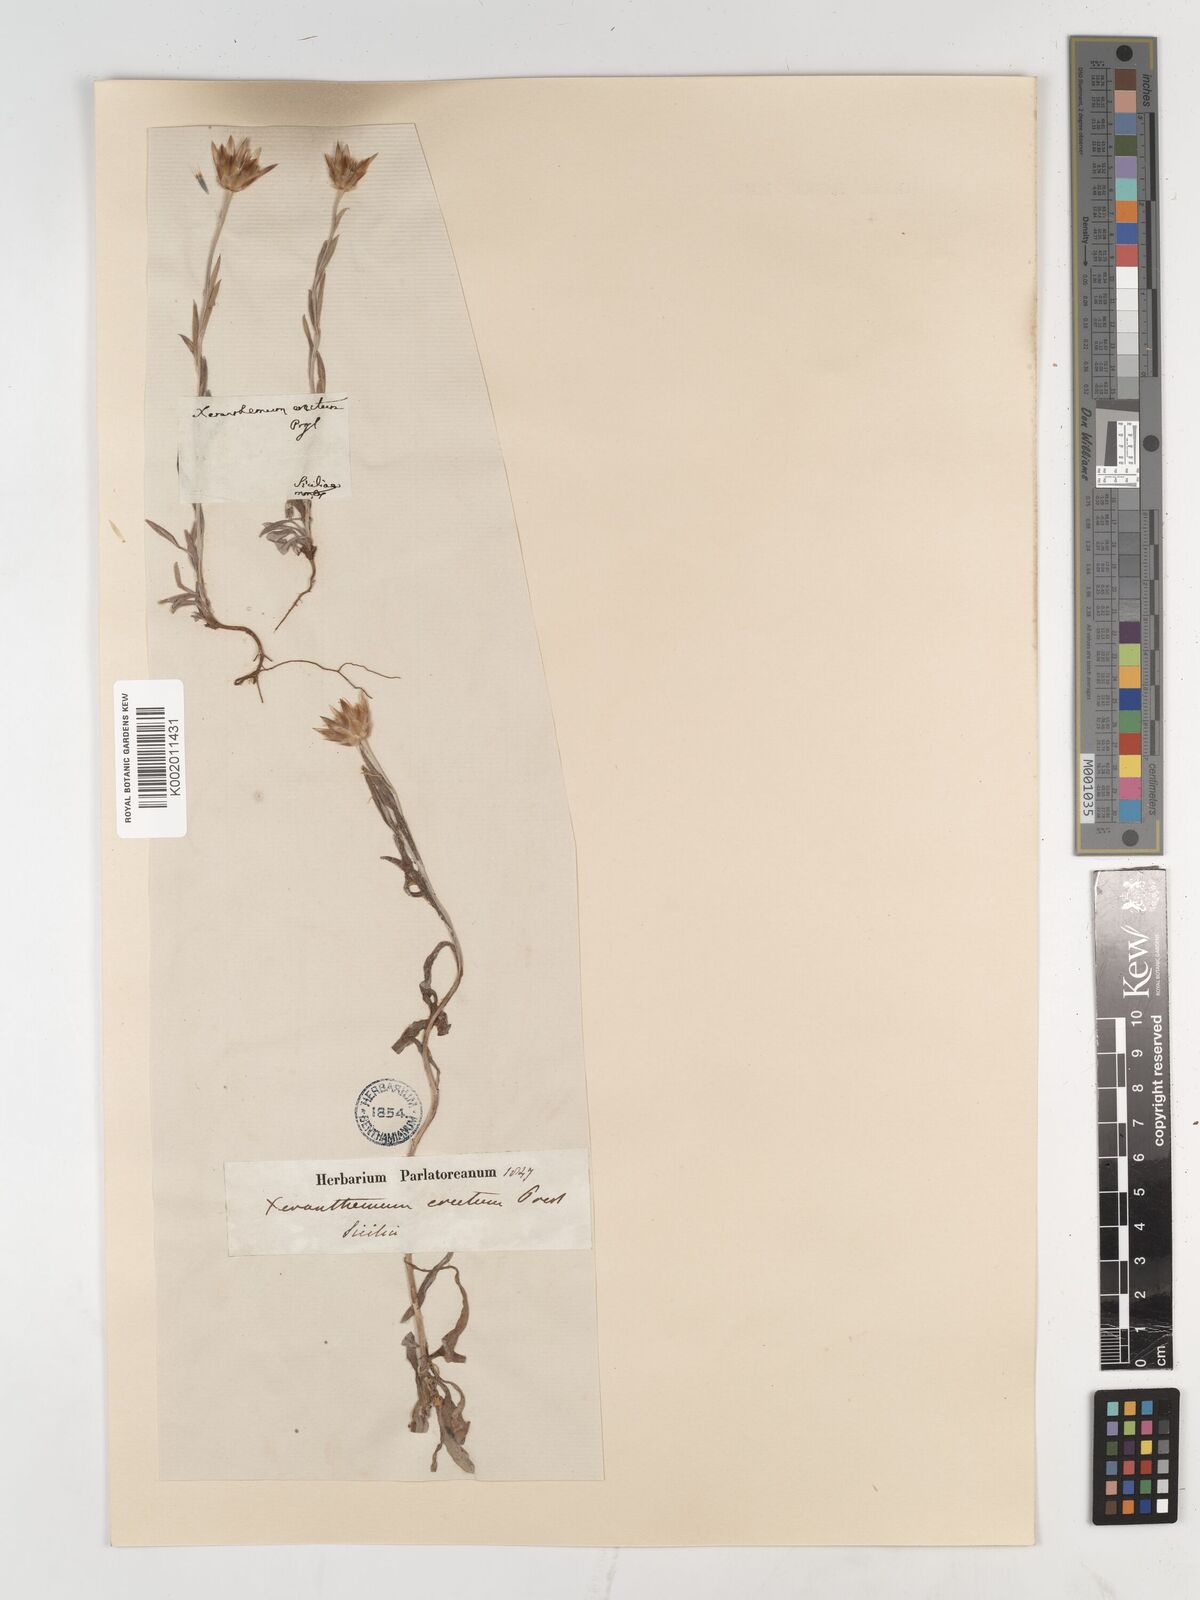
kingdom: Plantae
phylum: Tracheophyta
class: Magnoliopsida
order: Asterales
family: Asteraceae
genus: Xeranthemum
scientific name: Xeranthemum inapertum
